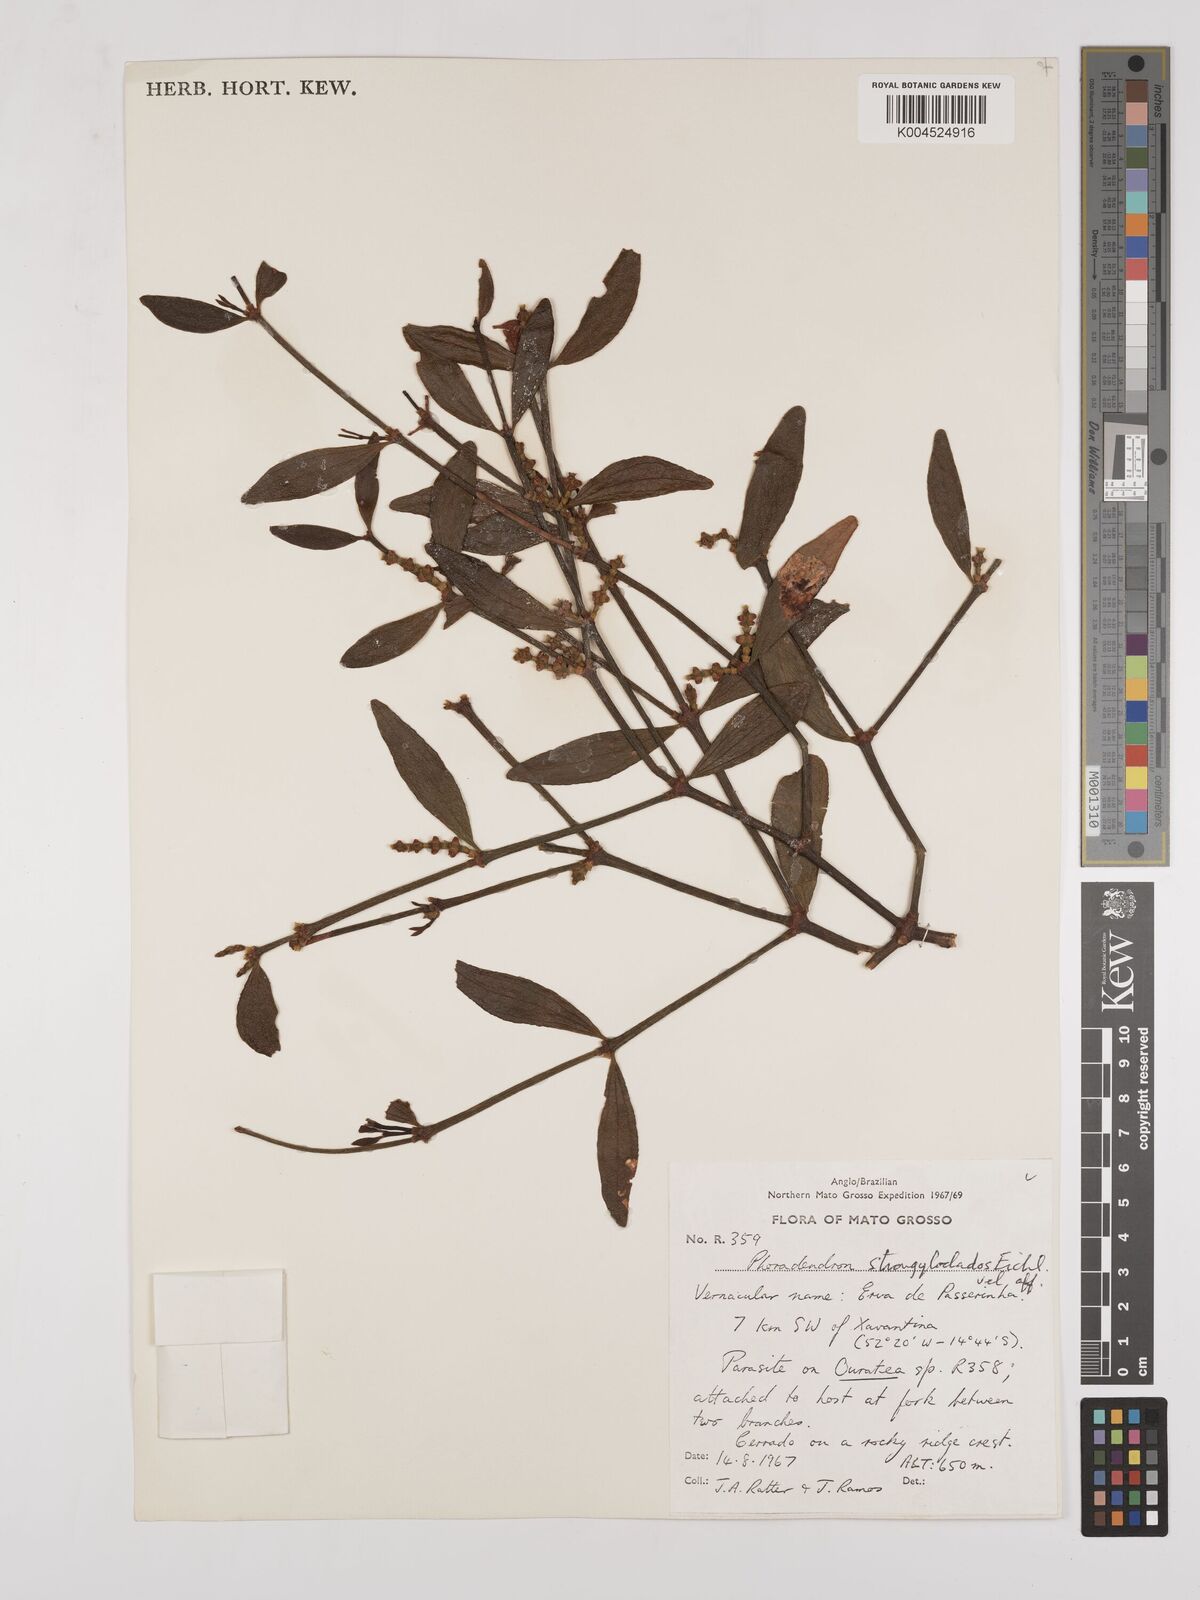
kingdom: Plantae
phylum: Tracheophyta
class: Magnoliopsida
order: Santalales
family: Viscaceae
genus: Phoradendron
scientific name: Phoradendron strongyloclados
